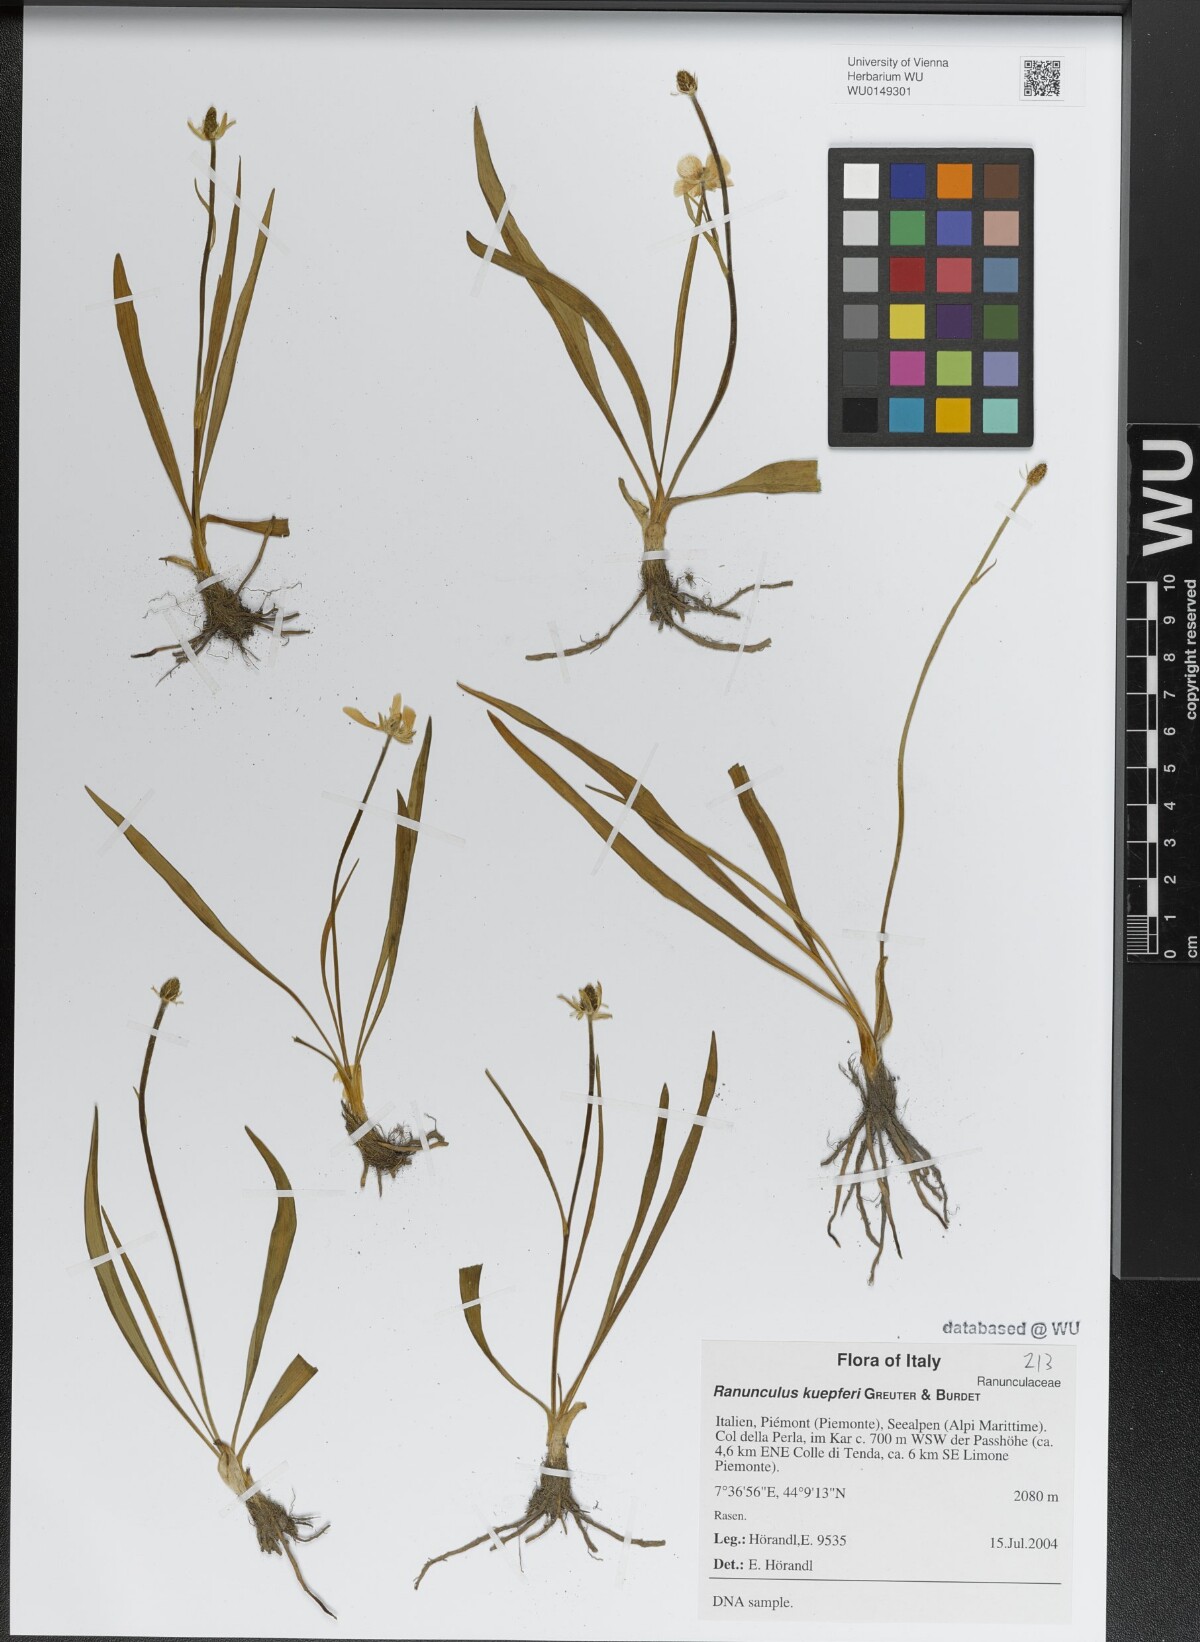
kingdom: Plantae
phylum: Tracheophyta
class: Magnoliopsida
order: Ranunculales
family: Ranunculaceae
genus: Ranunculus
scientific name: Ranunculus kuepferi
